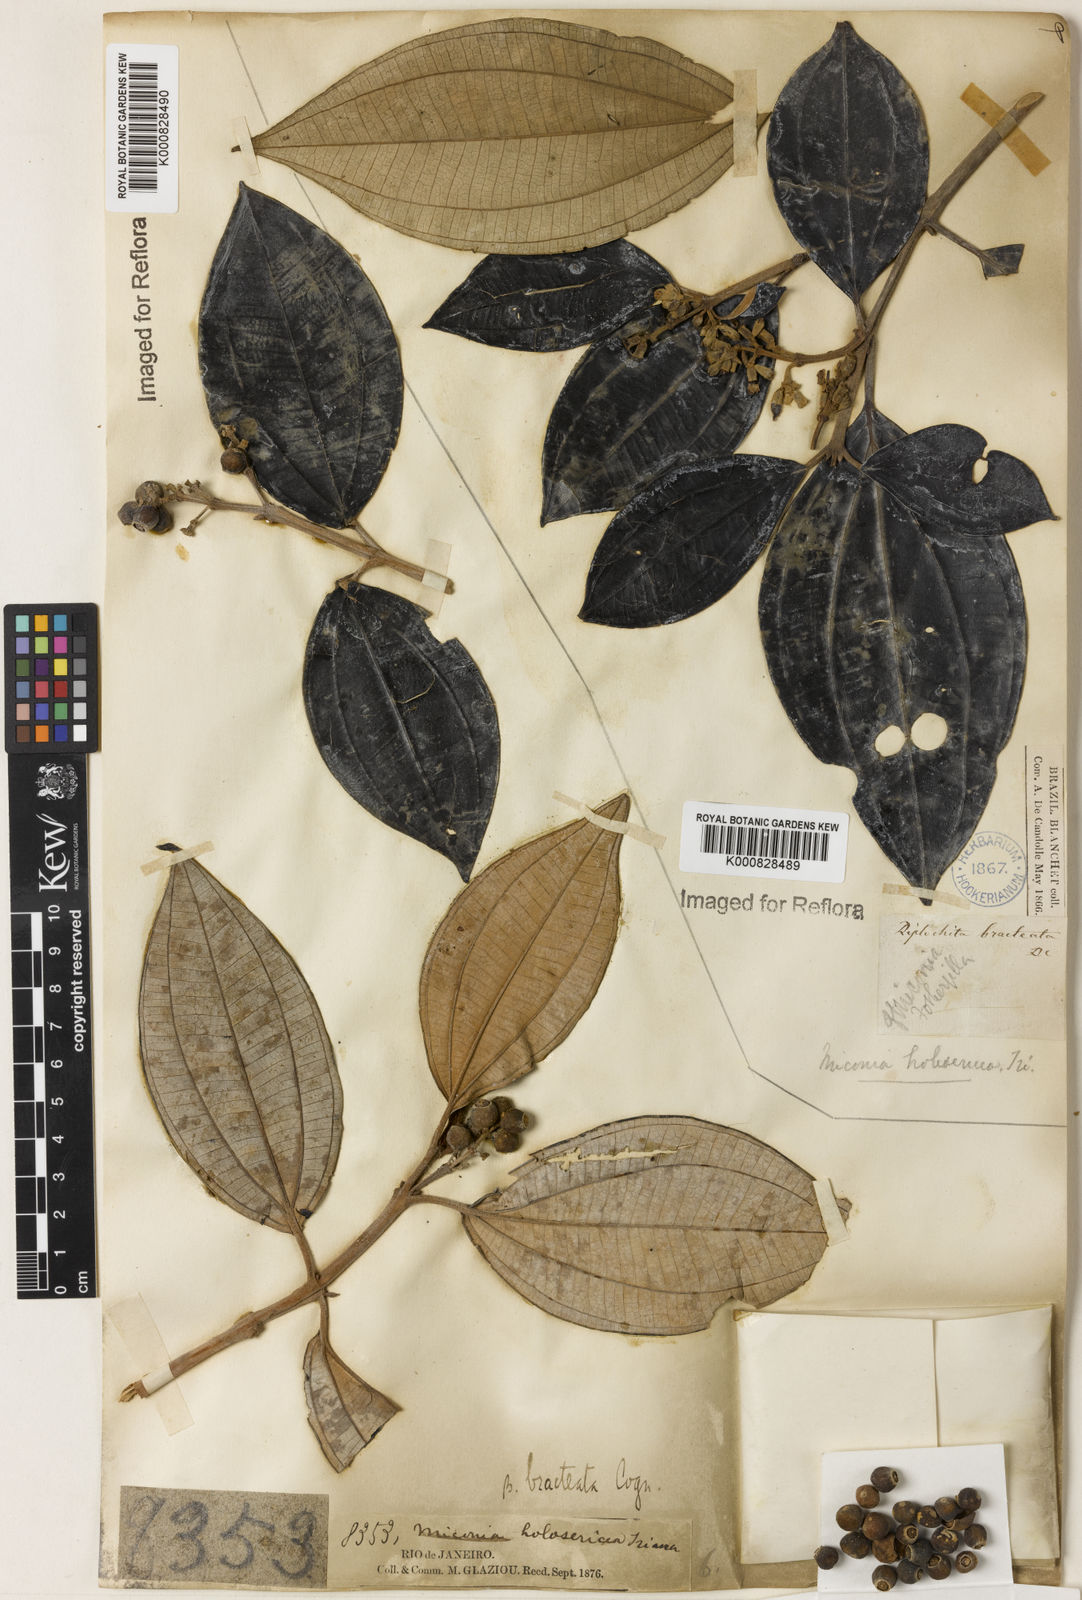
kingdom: Plantae
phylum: Tracheophyta
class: Magnoliopsida
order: Myrtales
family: Melastomataceae
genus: Miconia
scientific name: Miconia holosericea
